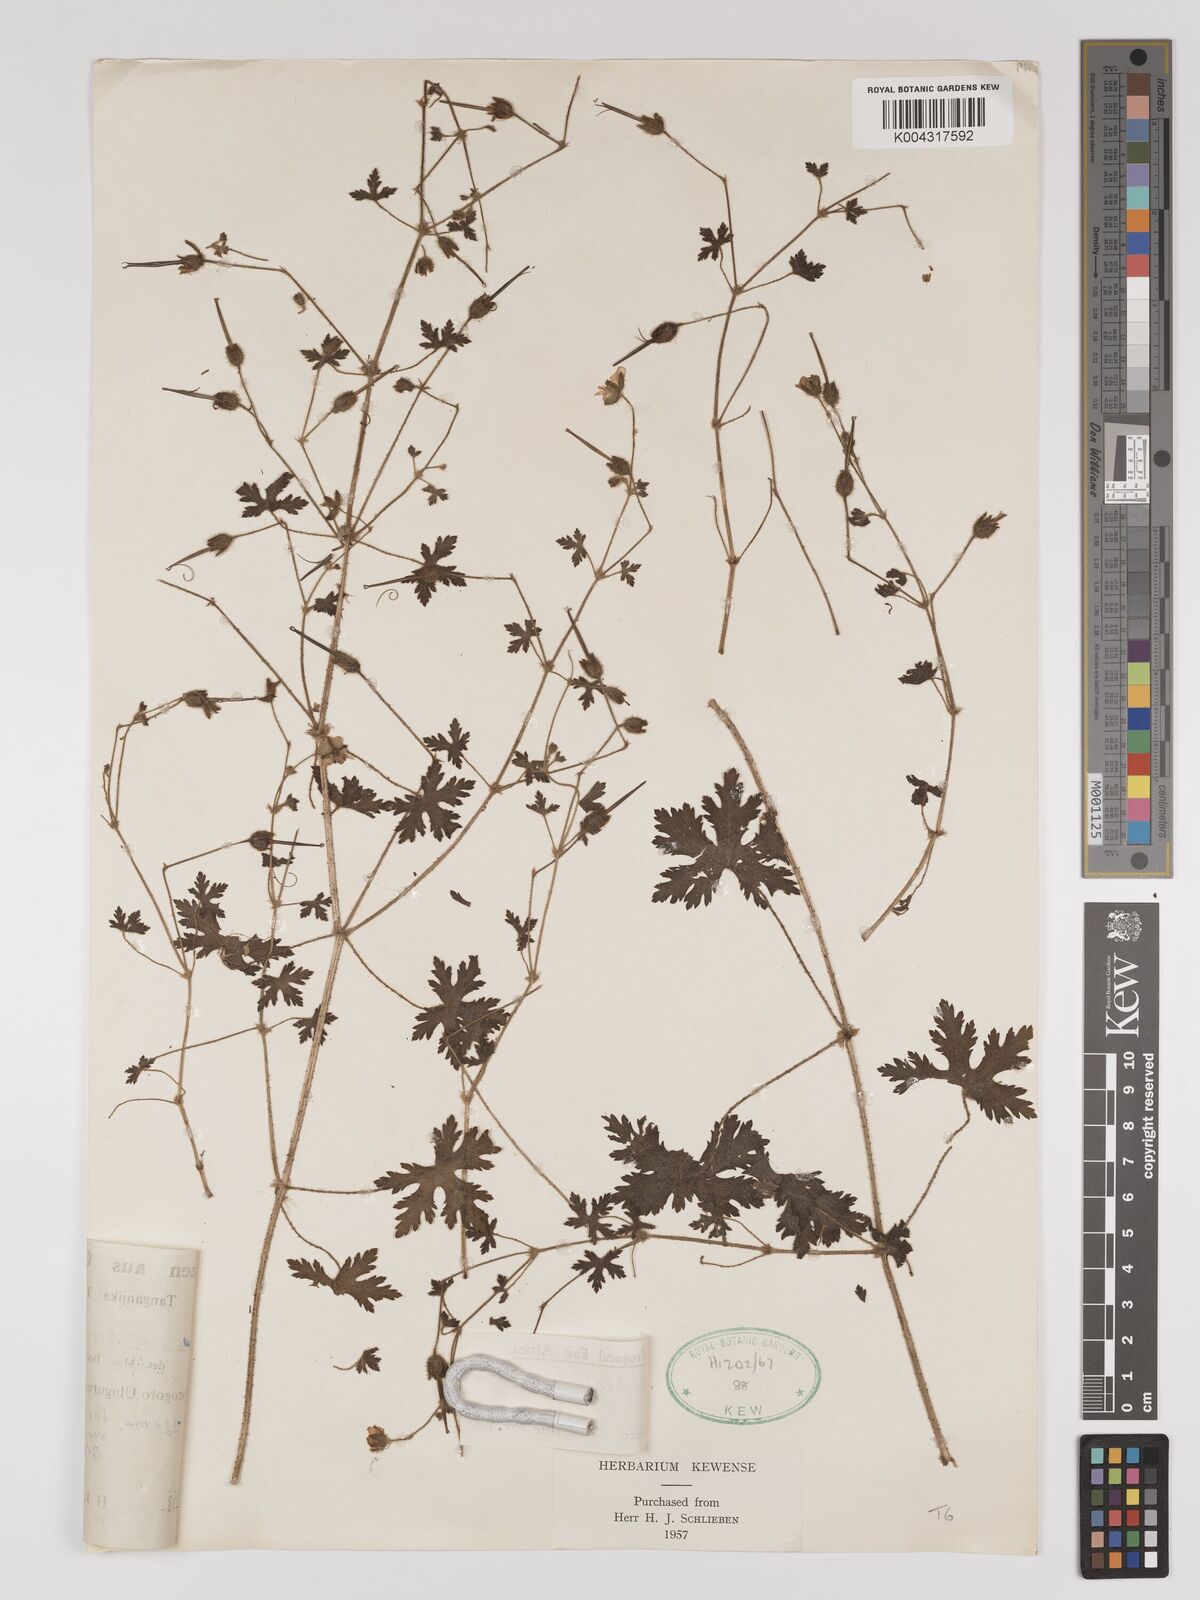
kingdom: Plantae
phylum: Tracheophyta
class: Magnoliopsida
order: Geraniales
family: Geraniaceae
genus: Geranium
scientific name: Geranium aculeolatum
